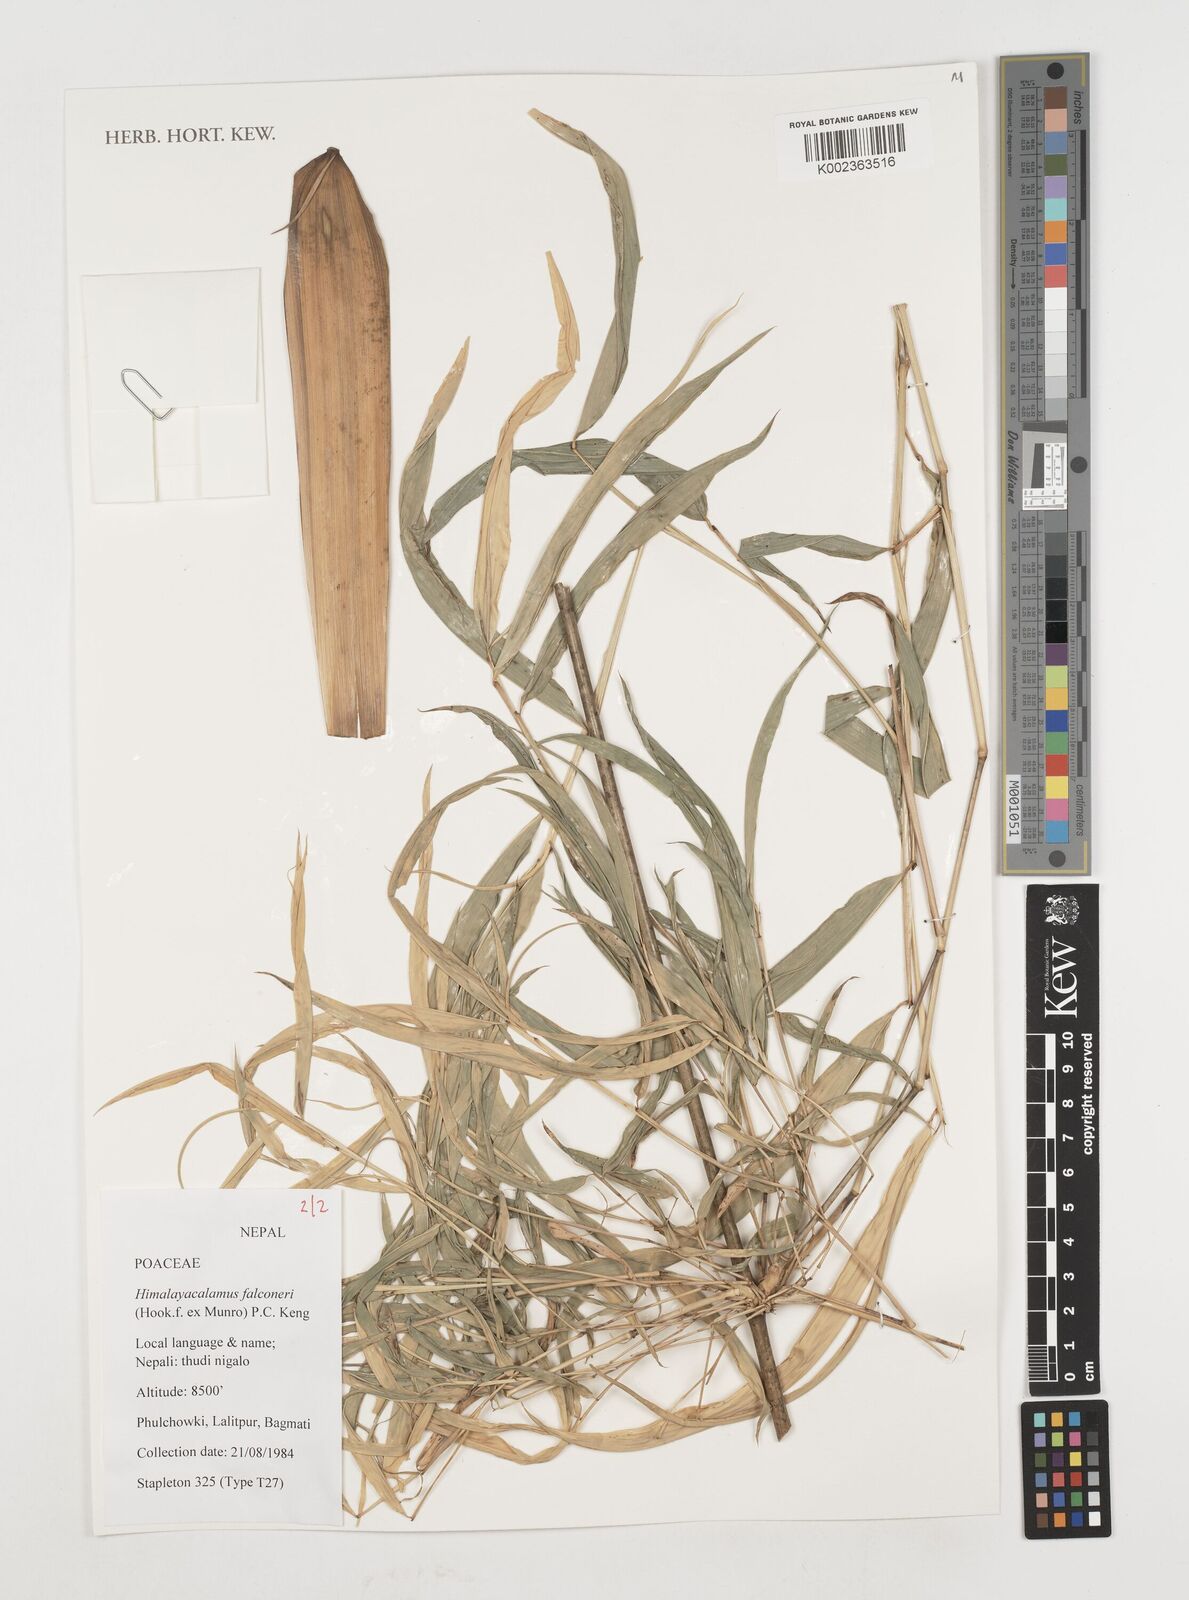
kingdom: Plantae
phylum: Tracheophyta
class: Liliopsida
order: Poales
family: Poaceae
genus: Himalayacalamus
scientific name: Himalayacalamus falconeri
